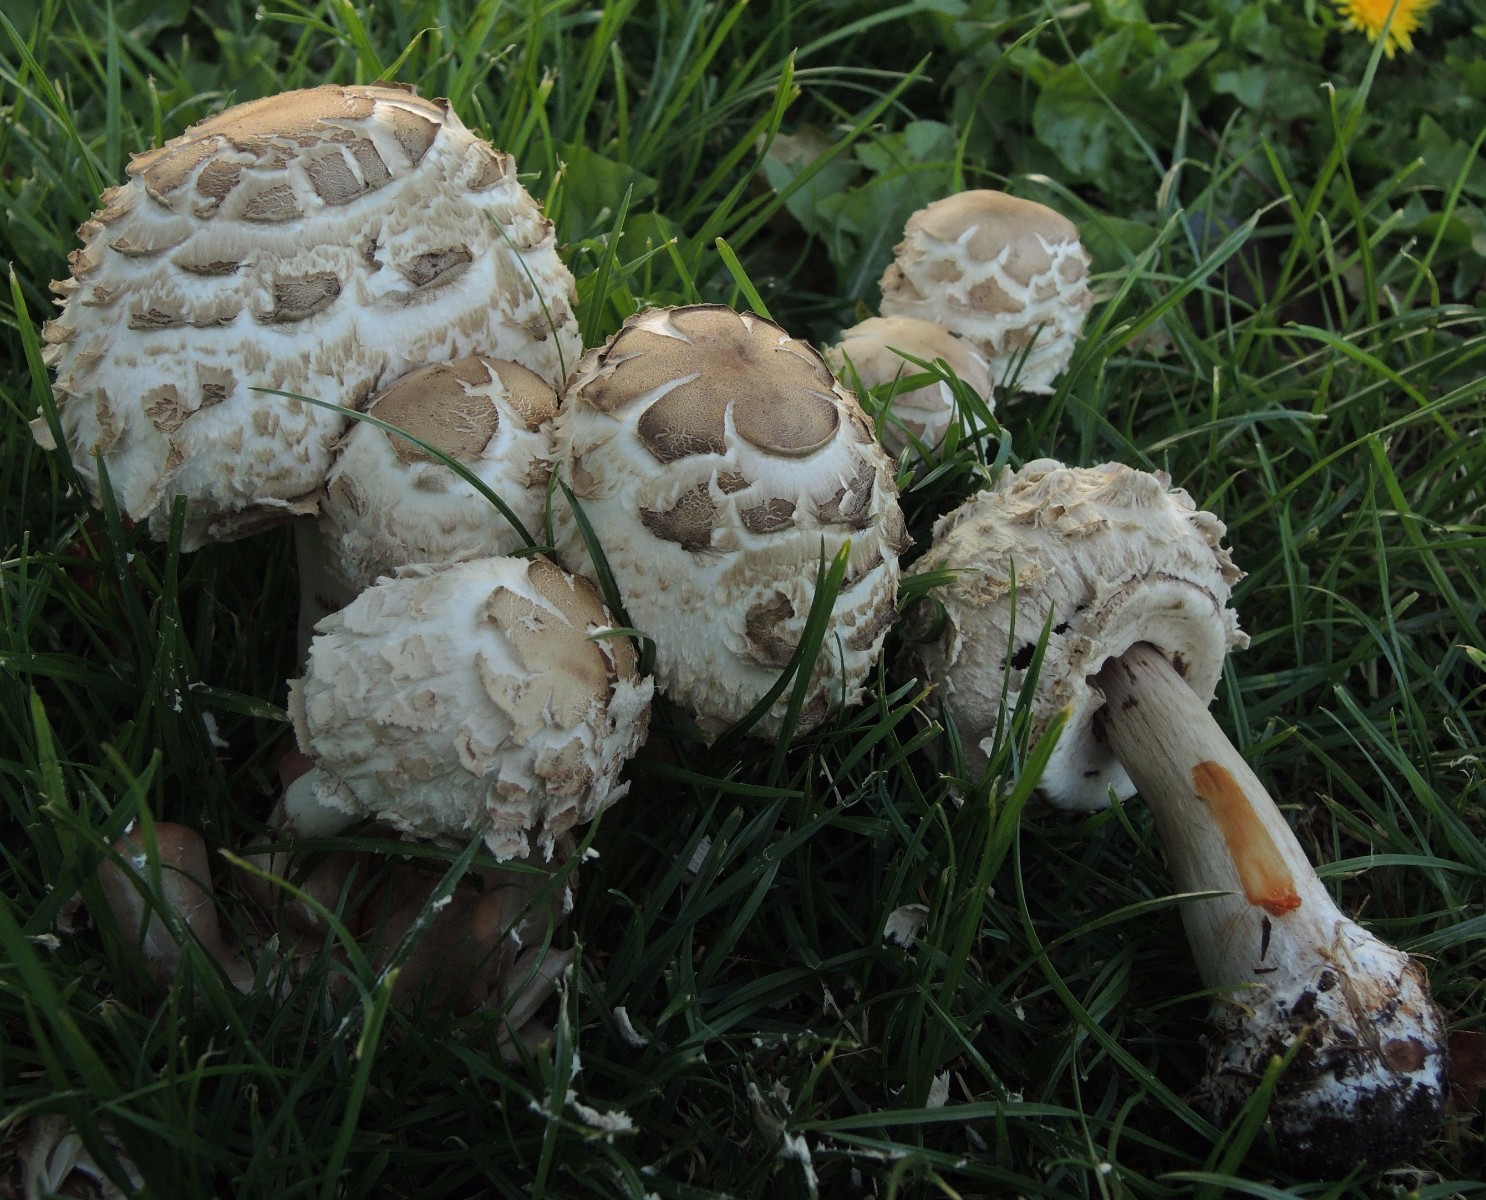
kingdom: Fungi
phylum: Basidiomycota
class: Agaricomycetes
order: Agaricales
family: Agaricaceae
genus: Chlorophyllum
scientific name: Chlorophyllum brunneum
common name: giftig rabarberhat
